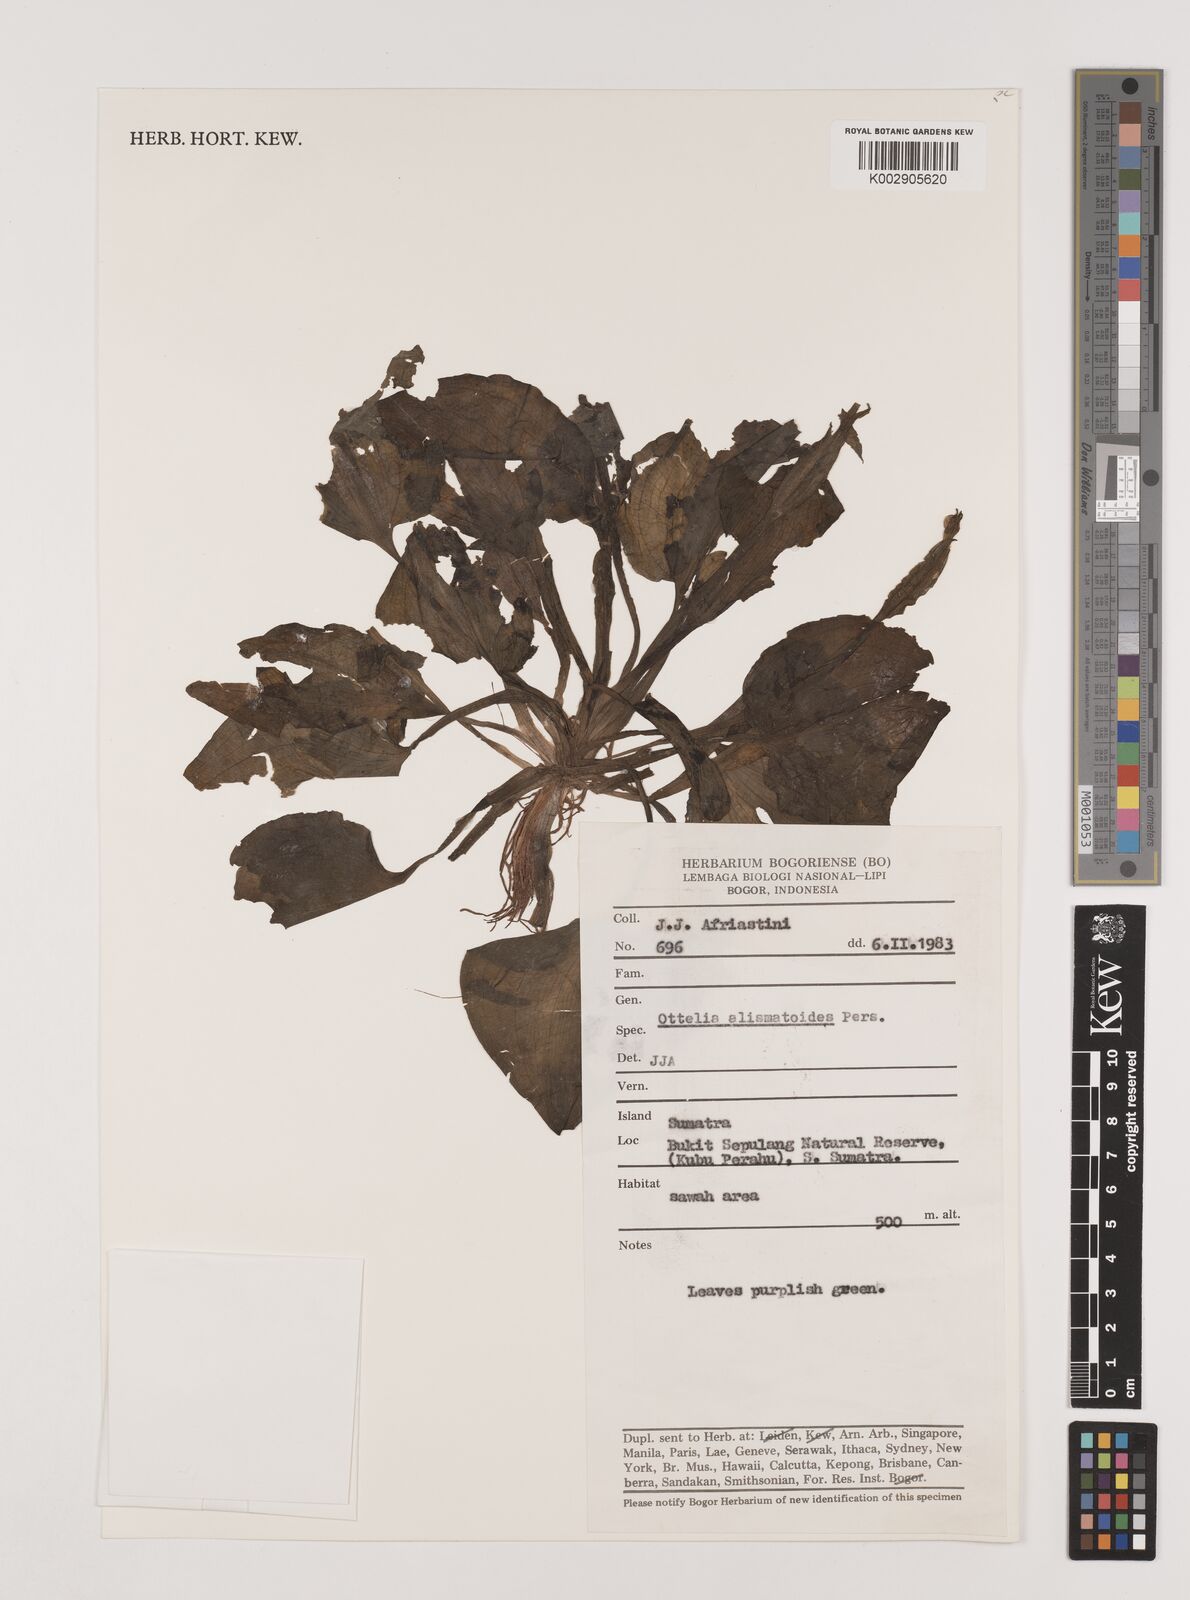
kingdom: Plantae
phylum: Tracheophyta
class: Liliopsida
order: Alismatales
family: Hydrocharitaceae
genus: Ottelia
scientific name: Ottelia alismoides
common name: Duck-lettuce
